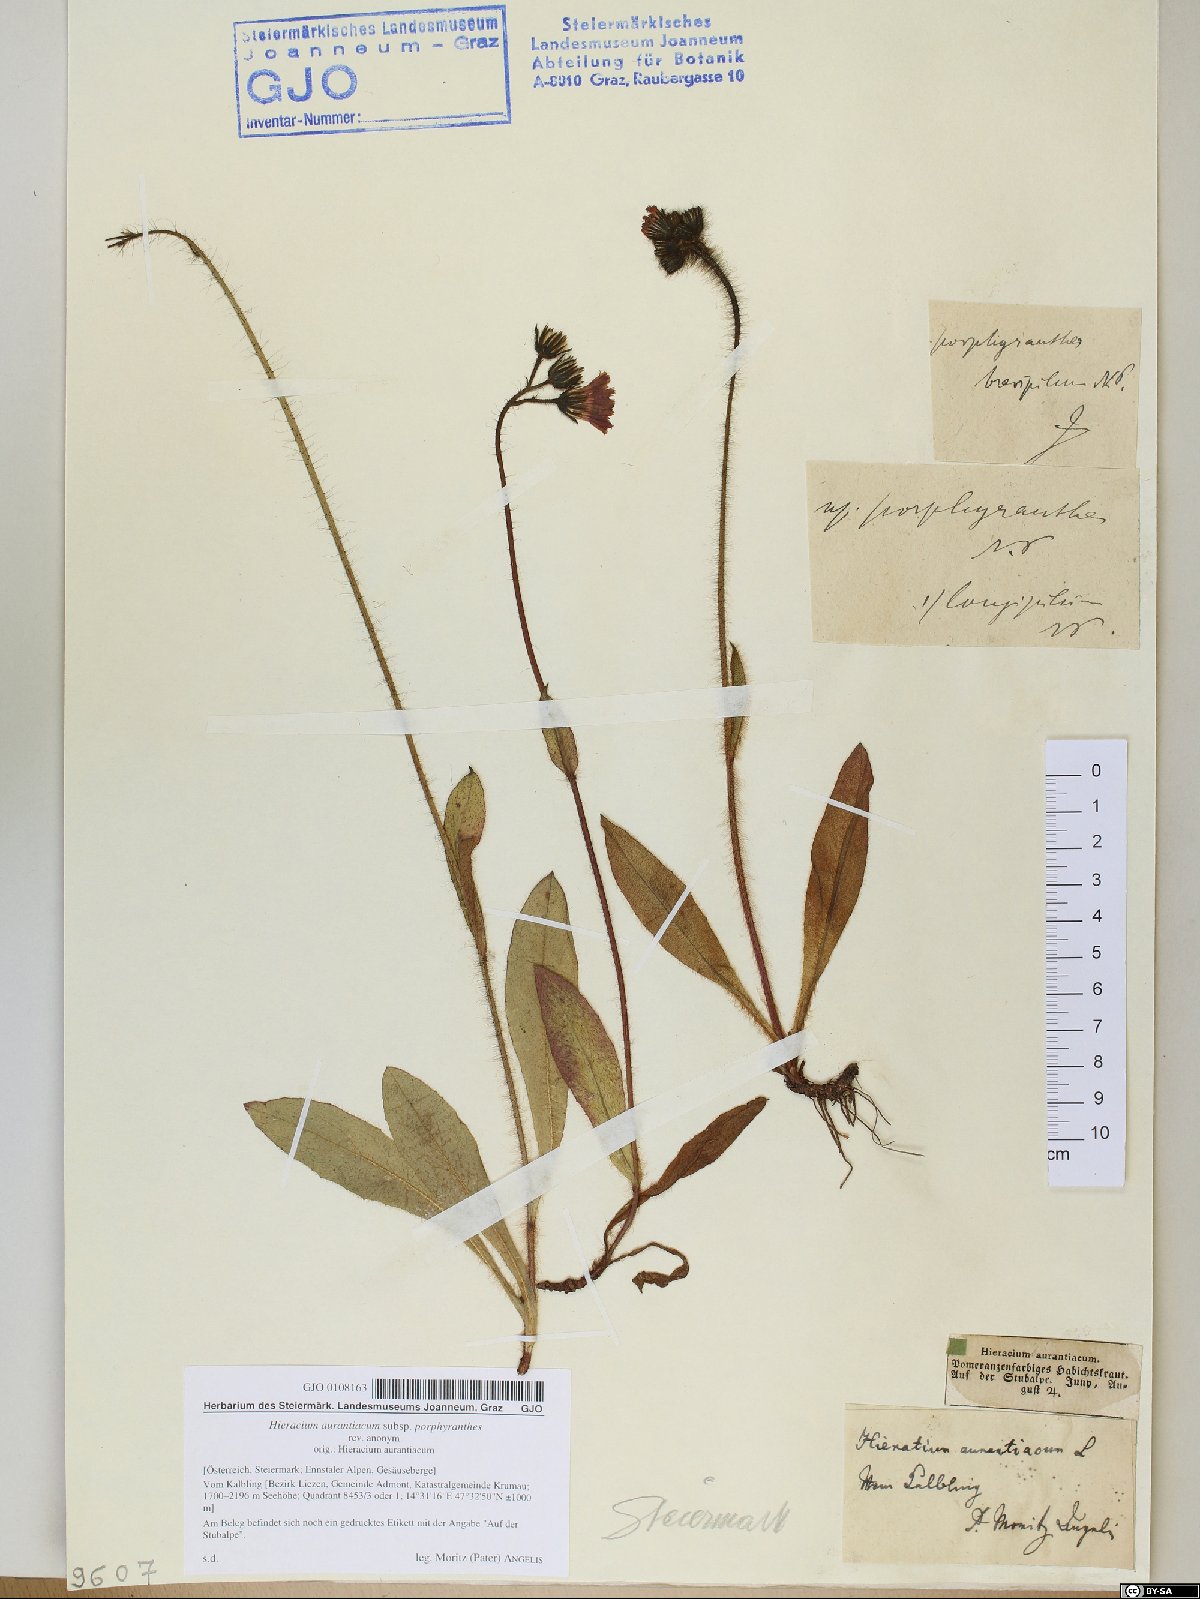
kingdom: Plantae
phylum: Tracheophyta
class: Magnoliopsida
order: Asterales
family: Asteraceae
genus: Pilosella
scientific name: Pilosella aurantiaca
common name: Fox-and-cubs
